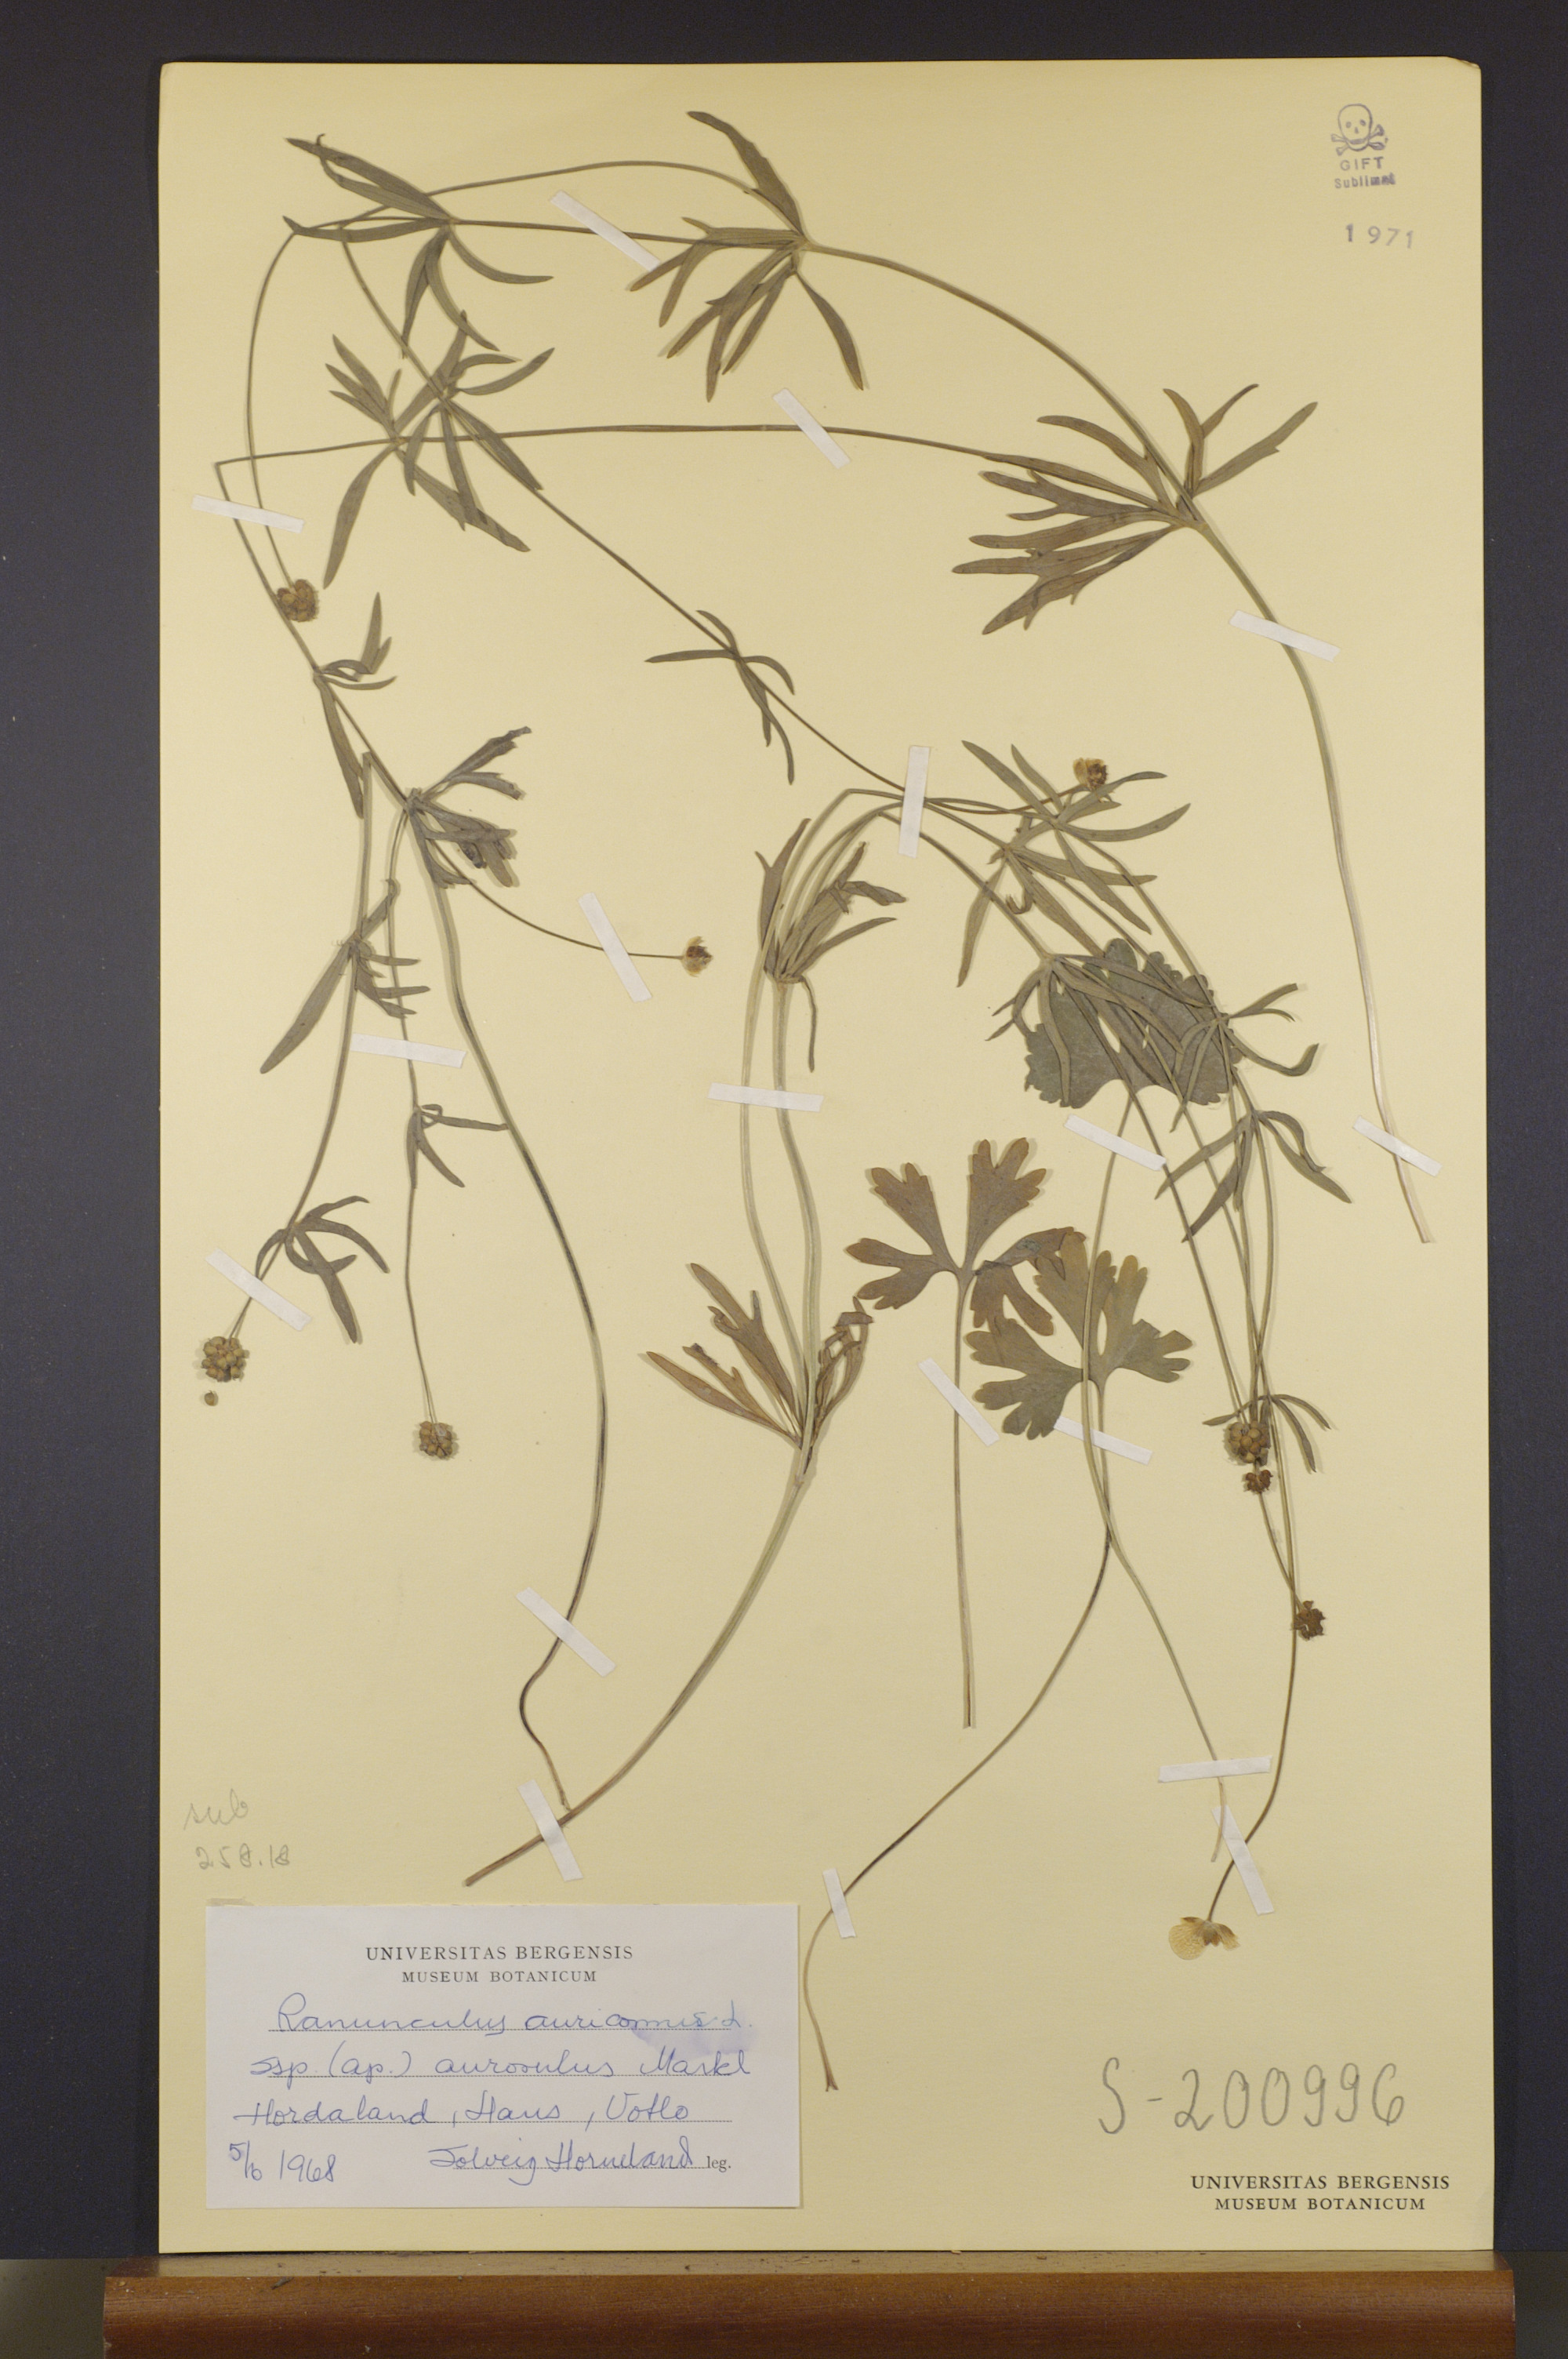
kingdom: Plantae
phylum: Tracheophyta
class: Magnoliopsida
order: Ranunculales
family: Ranunculaceae
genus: Ranunculus
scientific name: Ranunculus aurosulus
